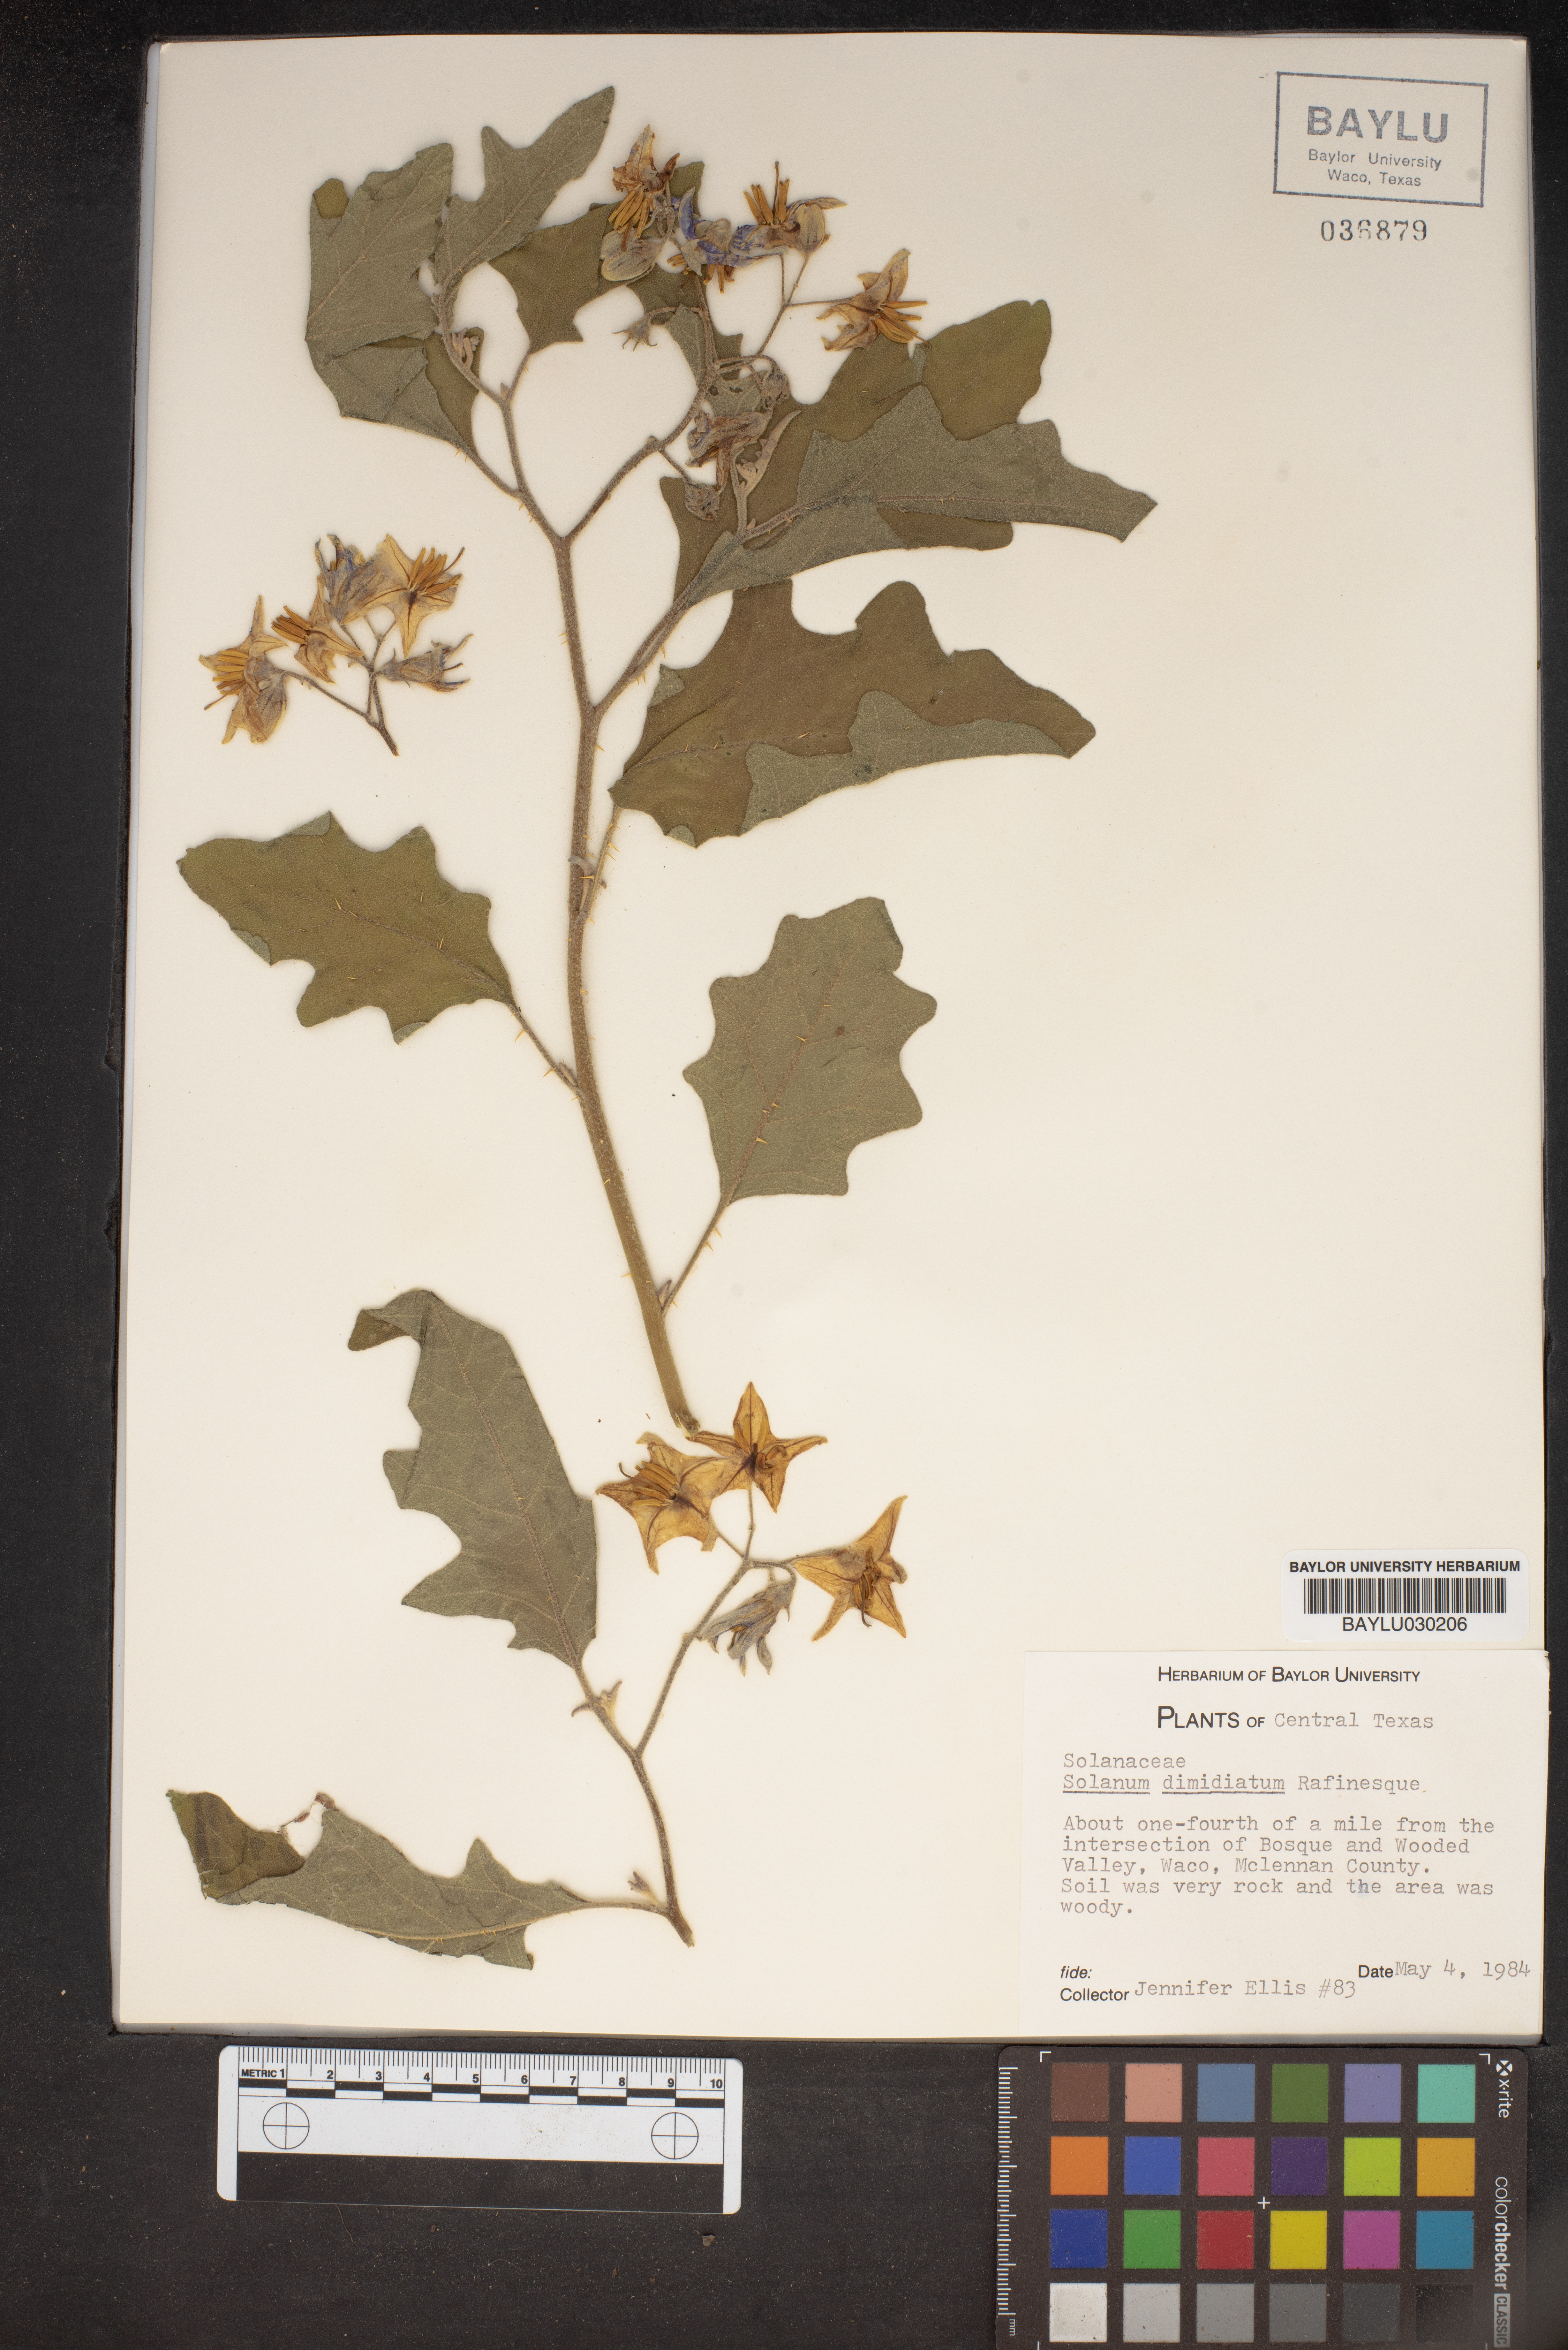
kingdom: Plantae
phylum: Tracheophyta
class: Magnoliopsida
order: Solanales
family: Solanaceae
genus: Solanum
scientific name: Solanum dimidiatum
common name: Carolina horse-nettle
